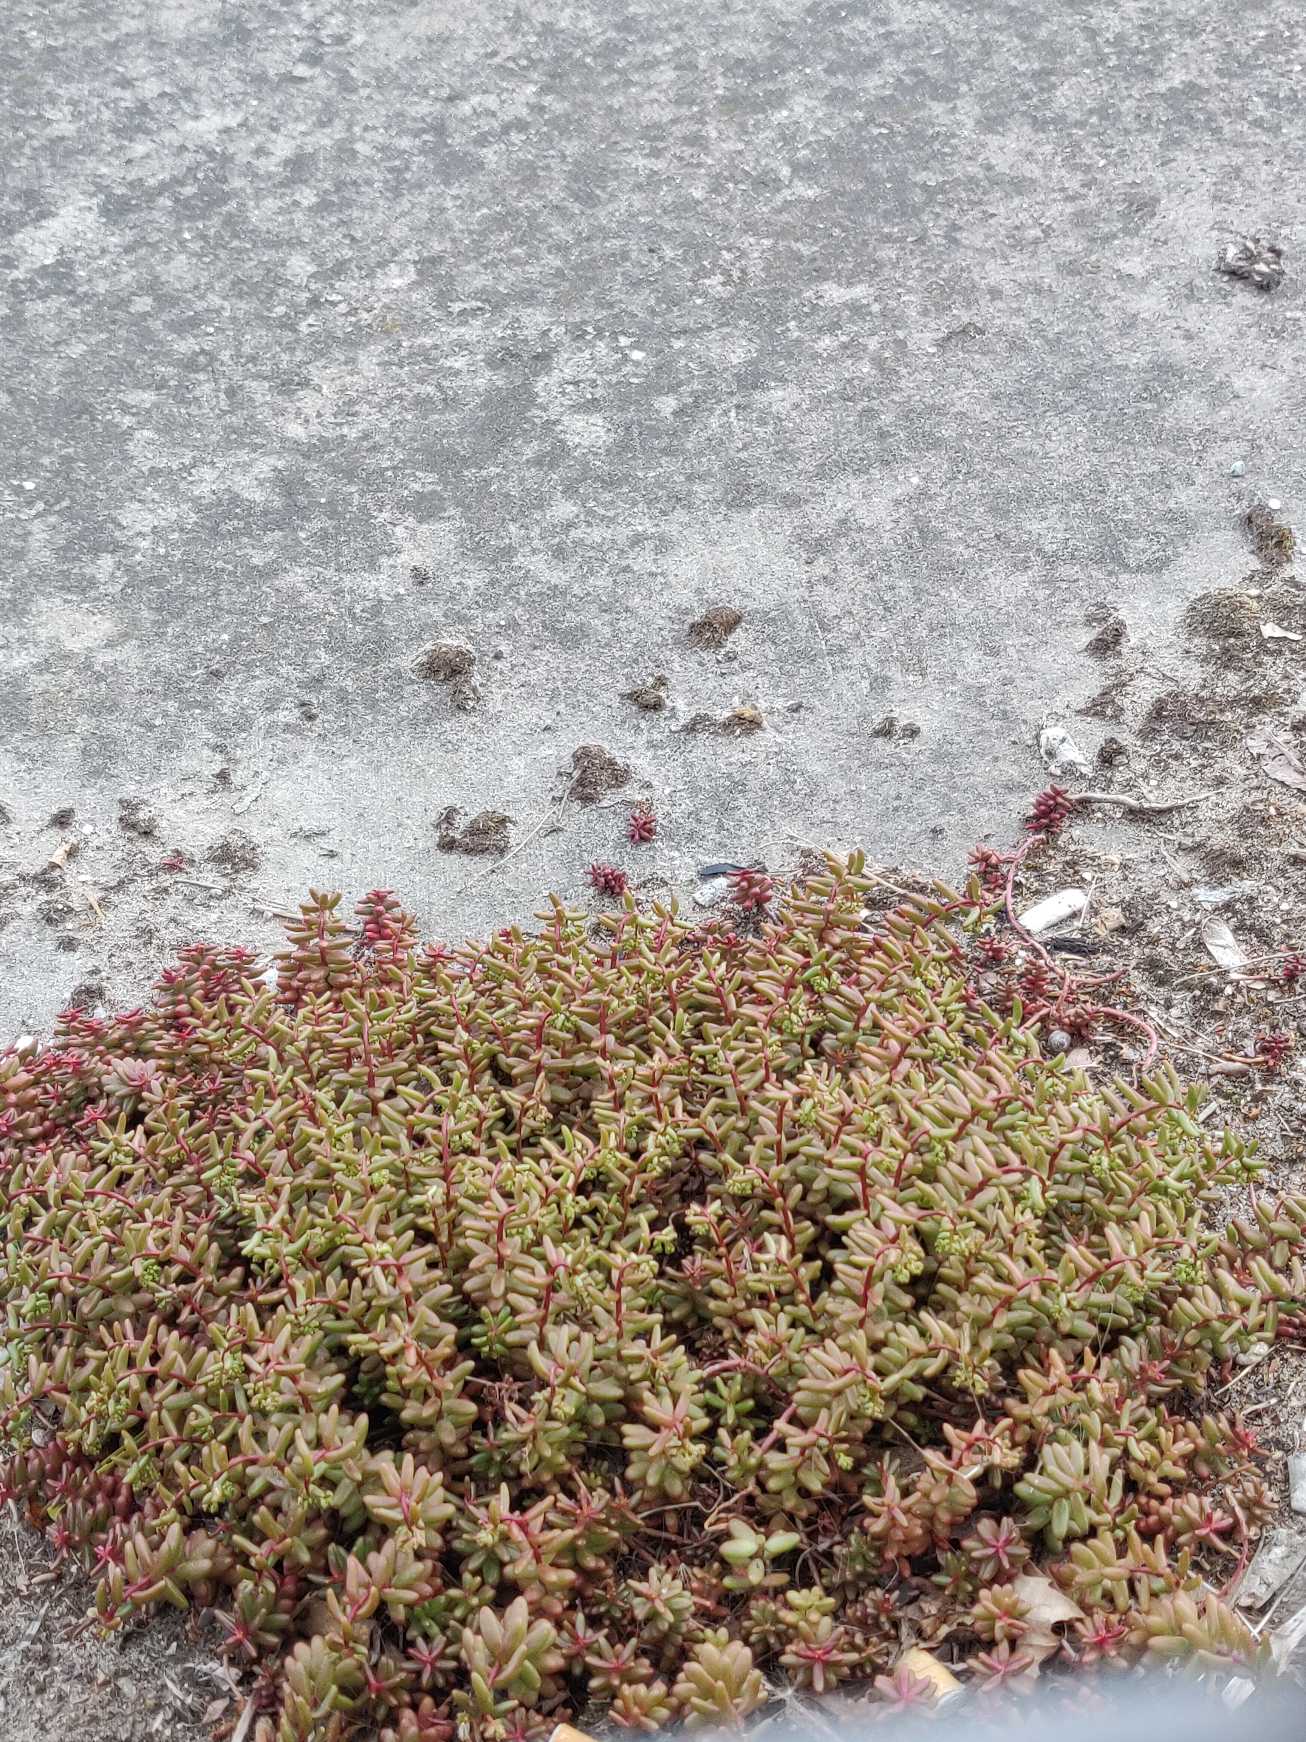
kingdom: Plantae
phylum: Tracheophyta
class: Magnoliopsida
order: Saxifragales
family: Crassulaceae
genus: Sedum
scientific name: Sedum album
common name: Hvid stenurt
